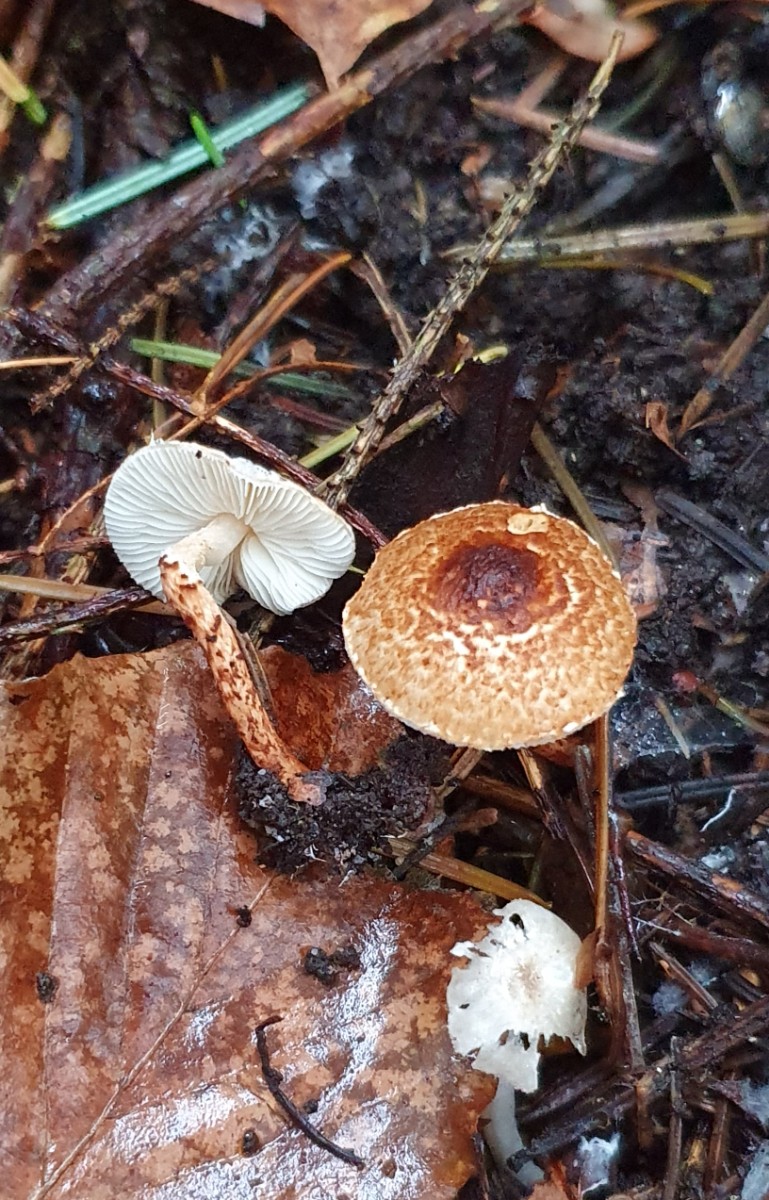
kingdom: Fungi
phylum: Basidiomycota
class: Agaricomycetes
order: Agaricales
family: Agaricaceae
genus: Lepiota
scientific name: Lepiota castanea
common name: kastaniebrun parasolhat
